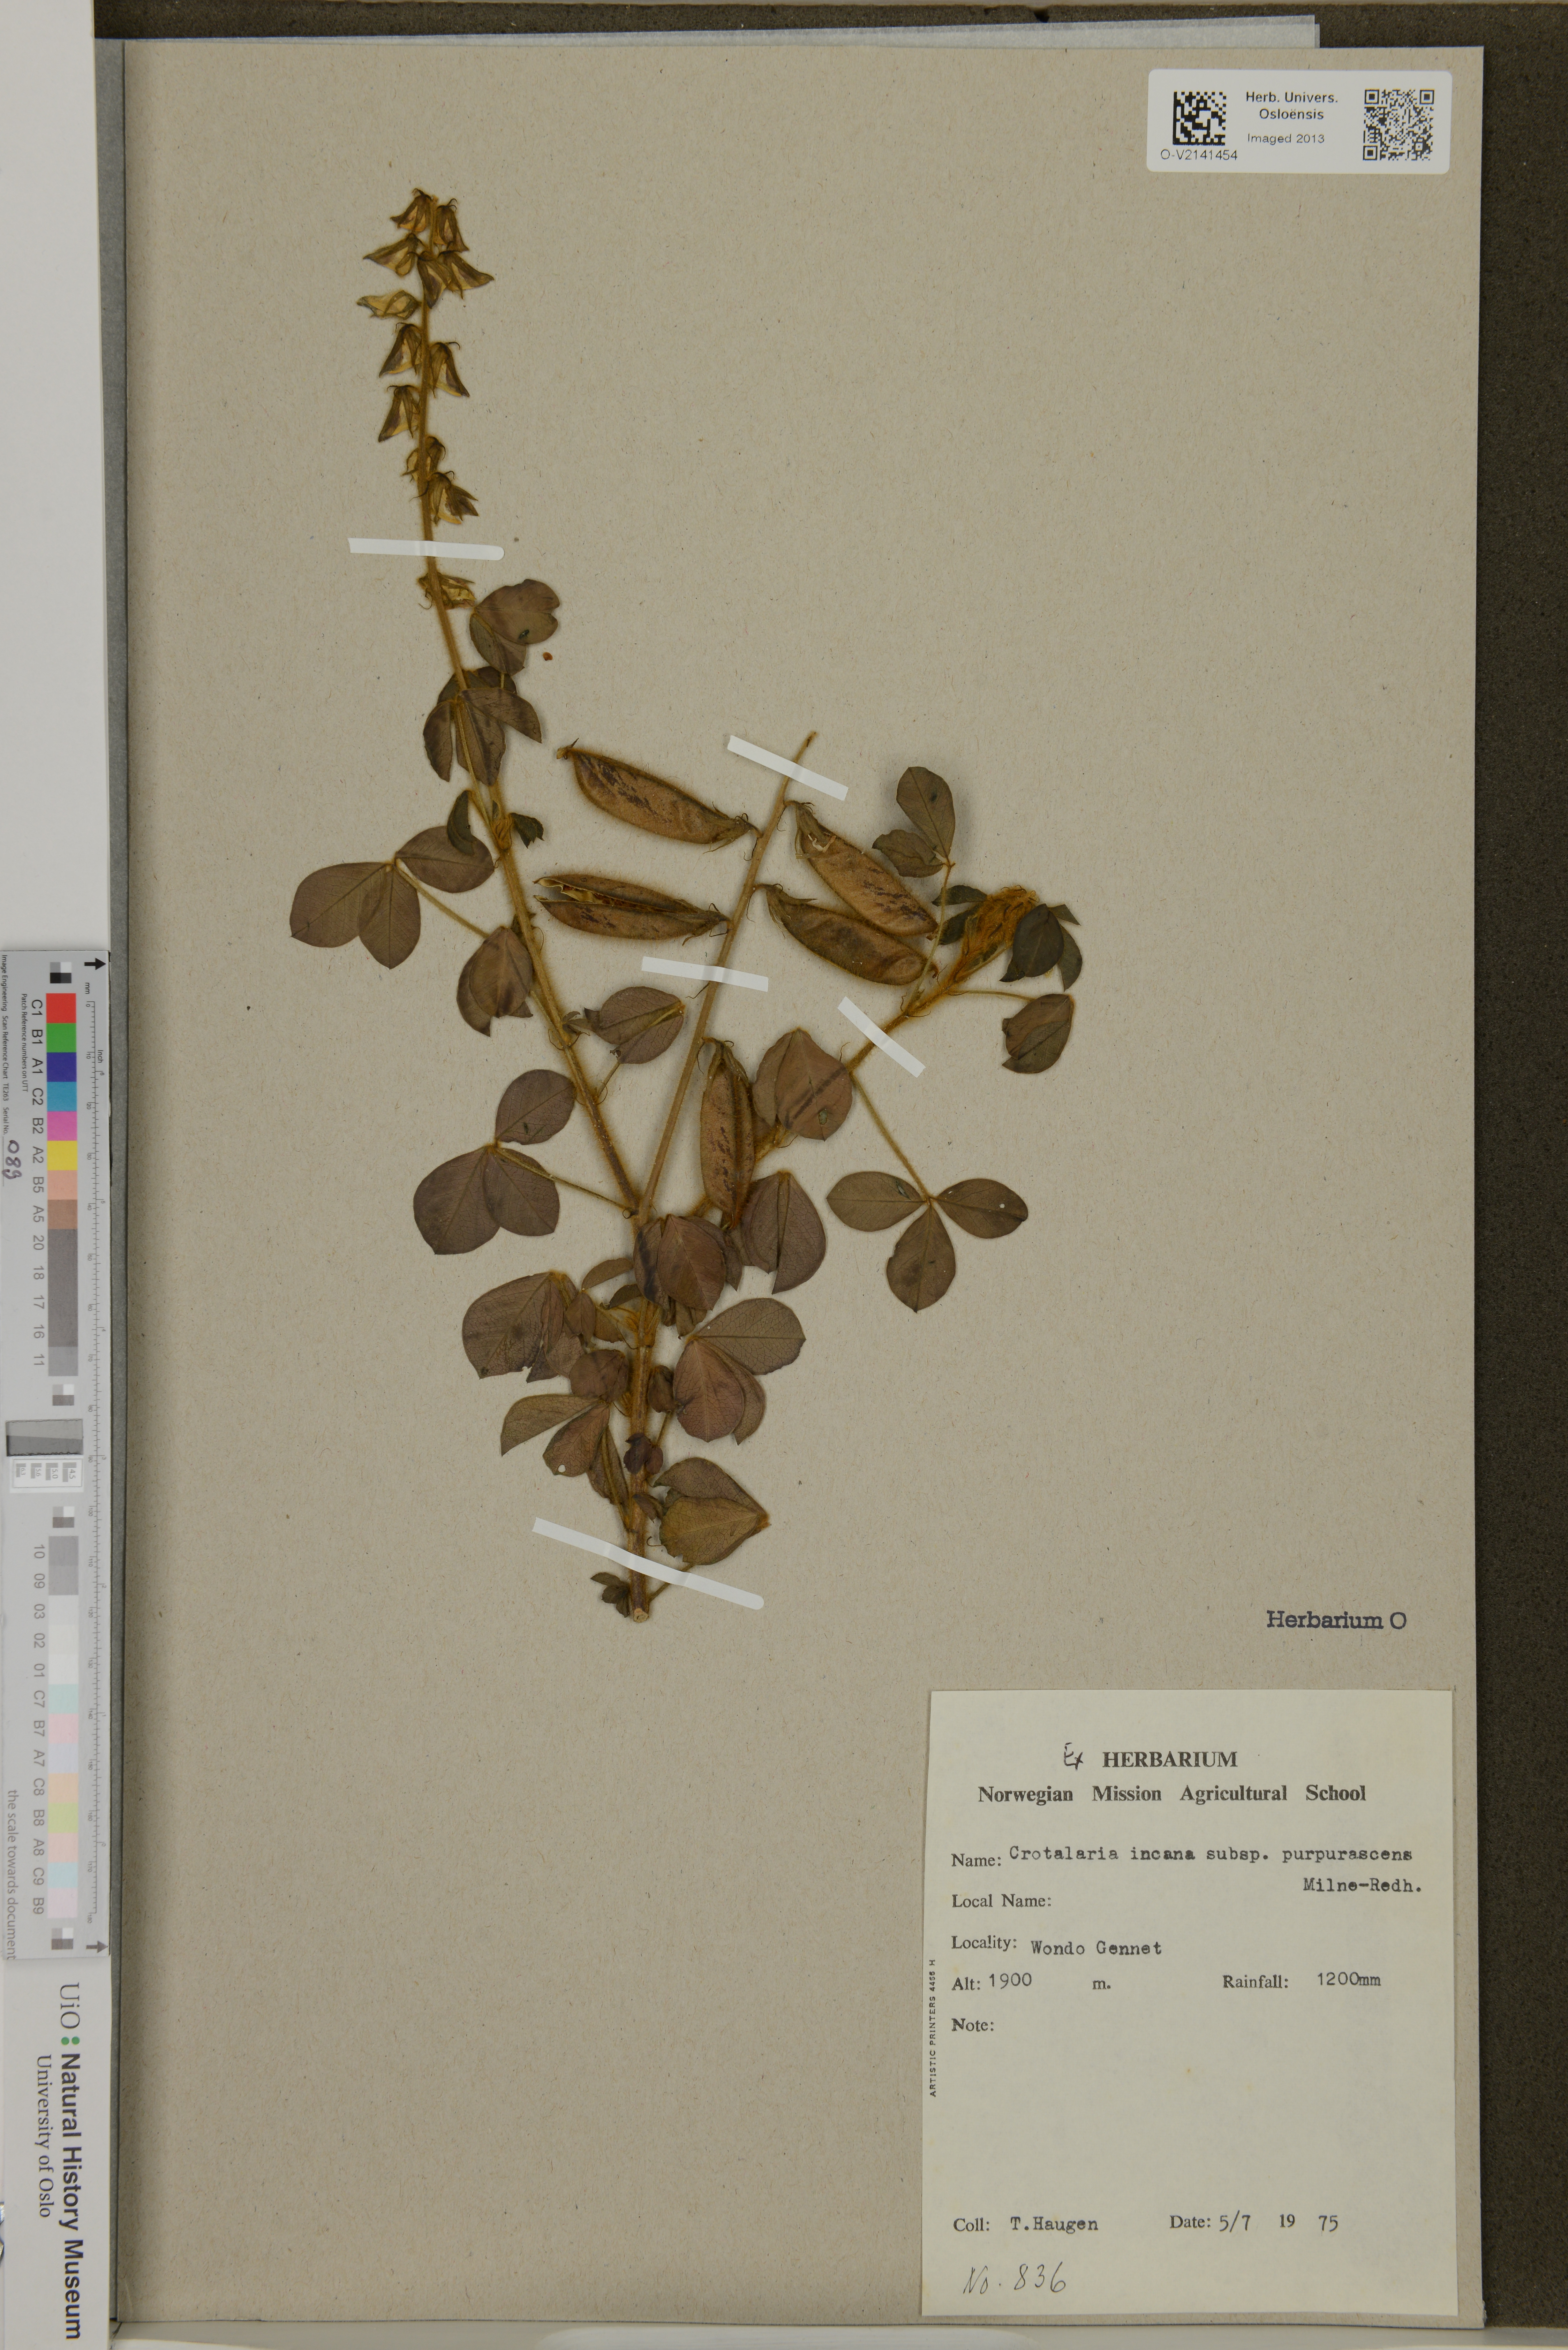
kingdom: Plantae
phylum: Tracheophyta
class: Magnoliopsida
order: Fabales
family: Fabaceae
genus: Crotalaria
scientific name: Crotalaria incana
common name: Shakeshake
